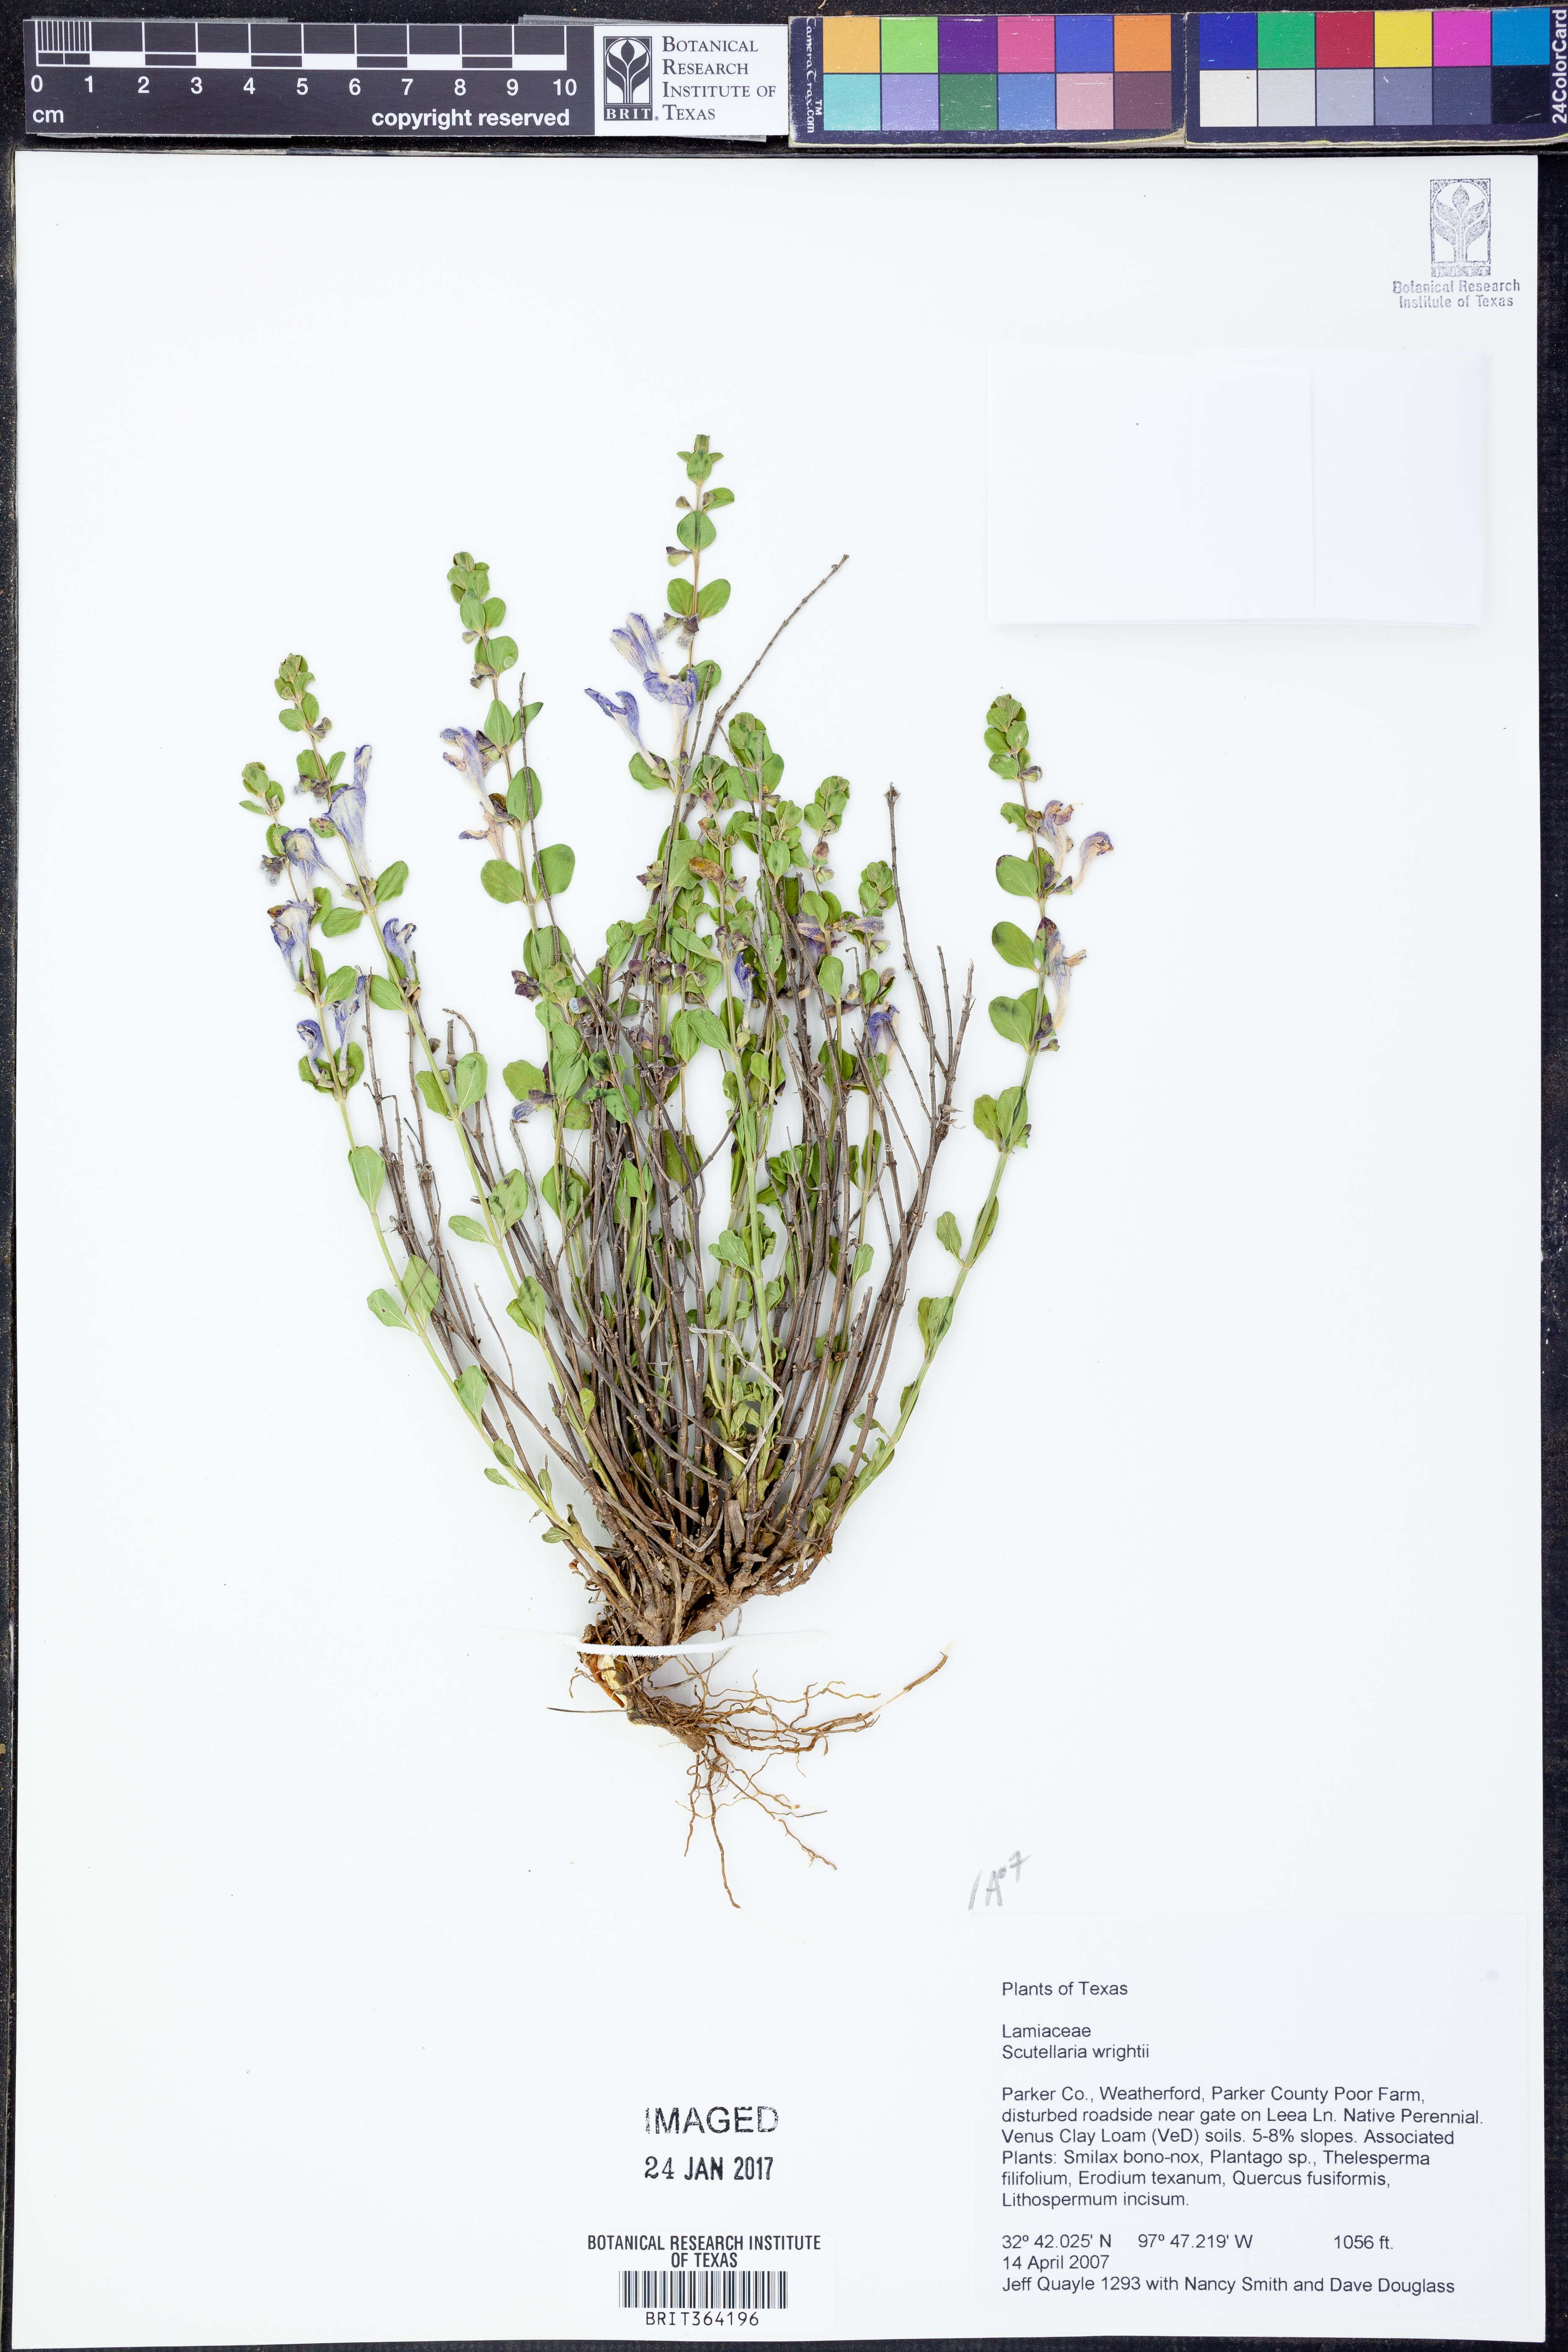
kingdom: Plantae
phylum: Tracheophyta
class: Magnoliopsida
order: Lamiales
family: Lamiaceae
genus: Scutellaria
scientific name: Scutellaria wrightii
